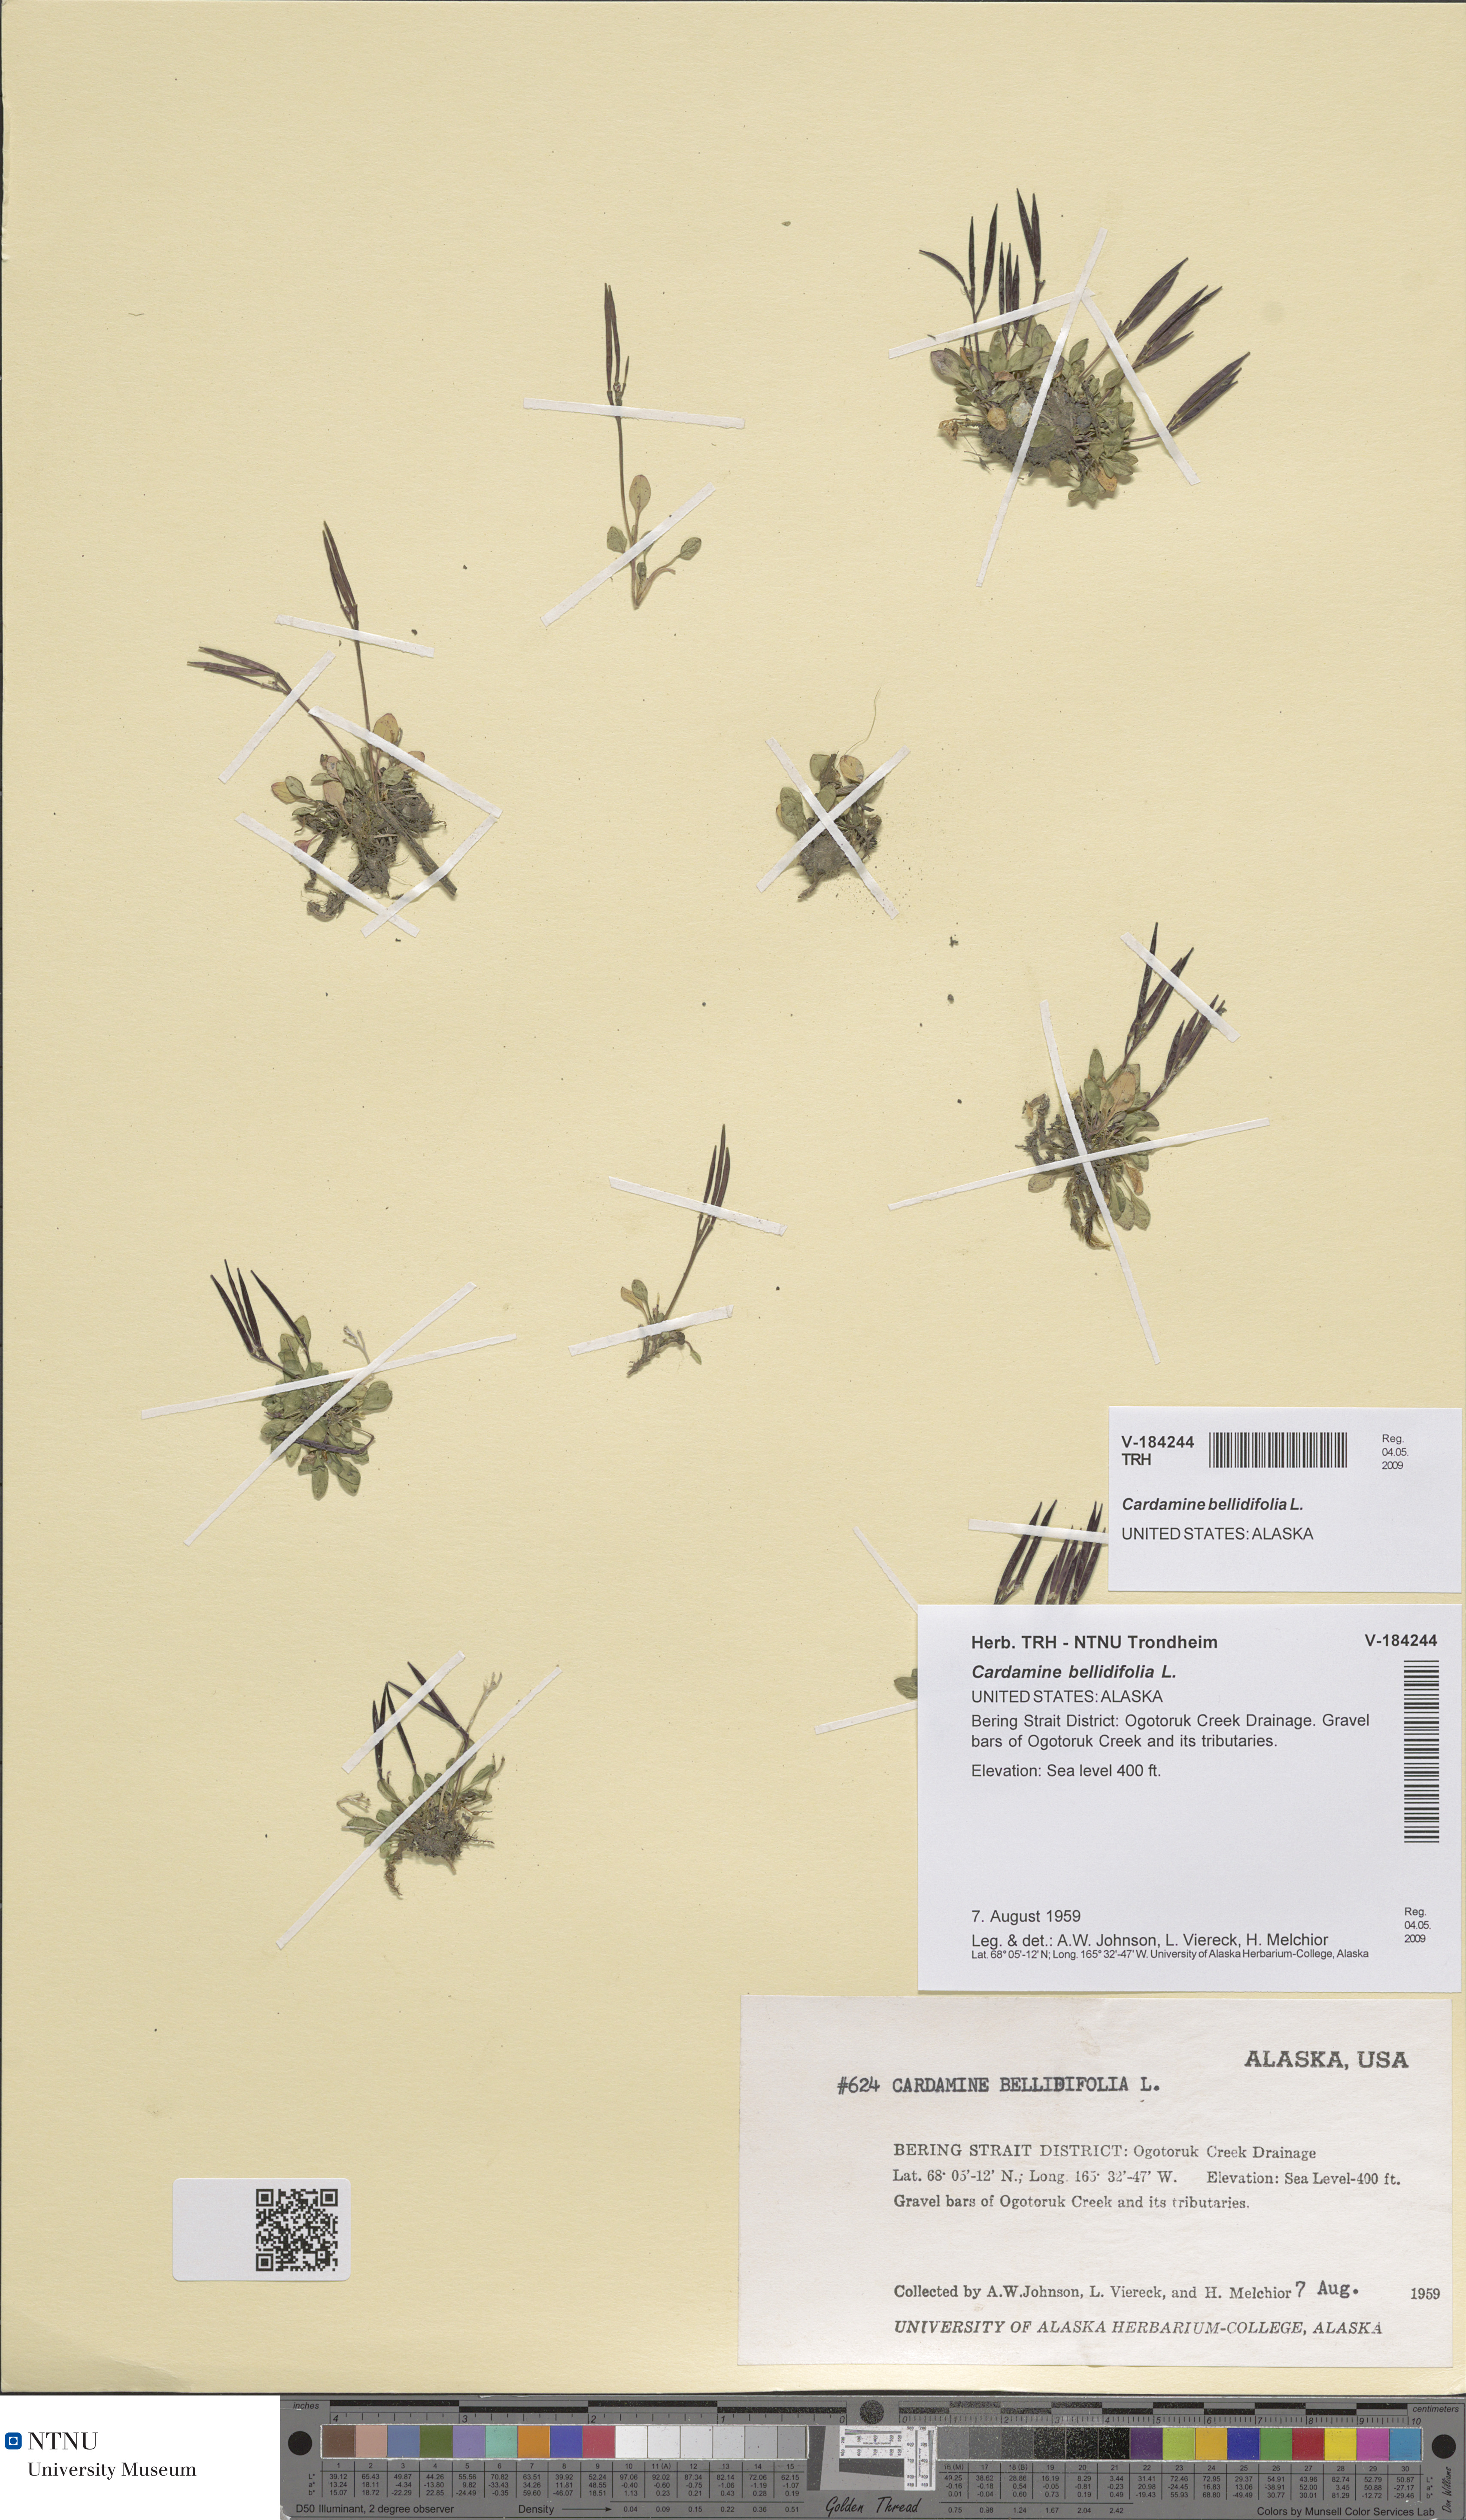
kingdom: Plantae
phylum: Tracheophyta
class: Magnoliopsida
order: Brassicales
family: Brassicaceae
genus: Cardamine
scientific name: Cardamine bellidifolia
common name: Alpine bittercress
